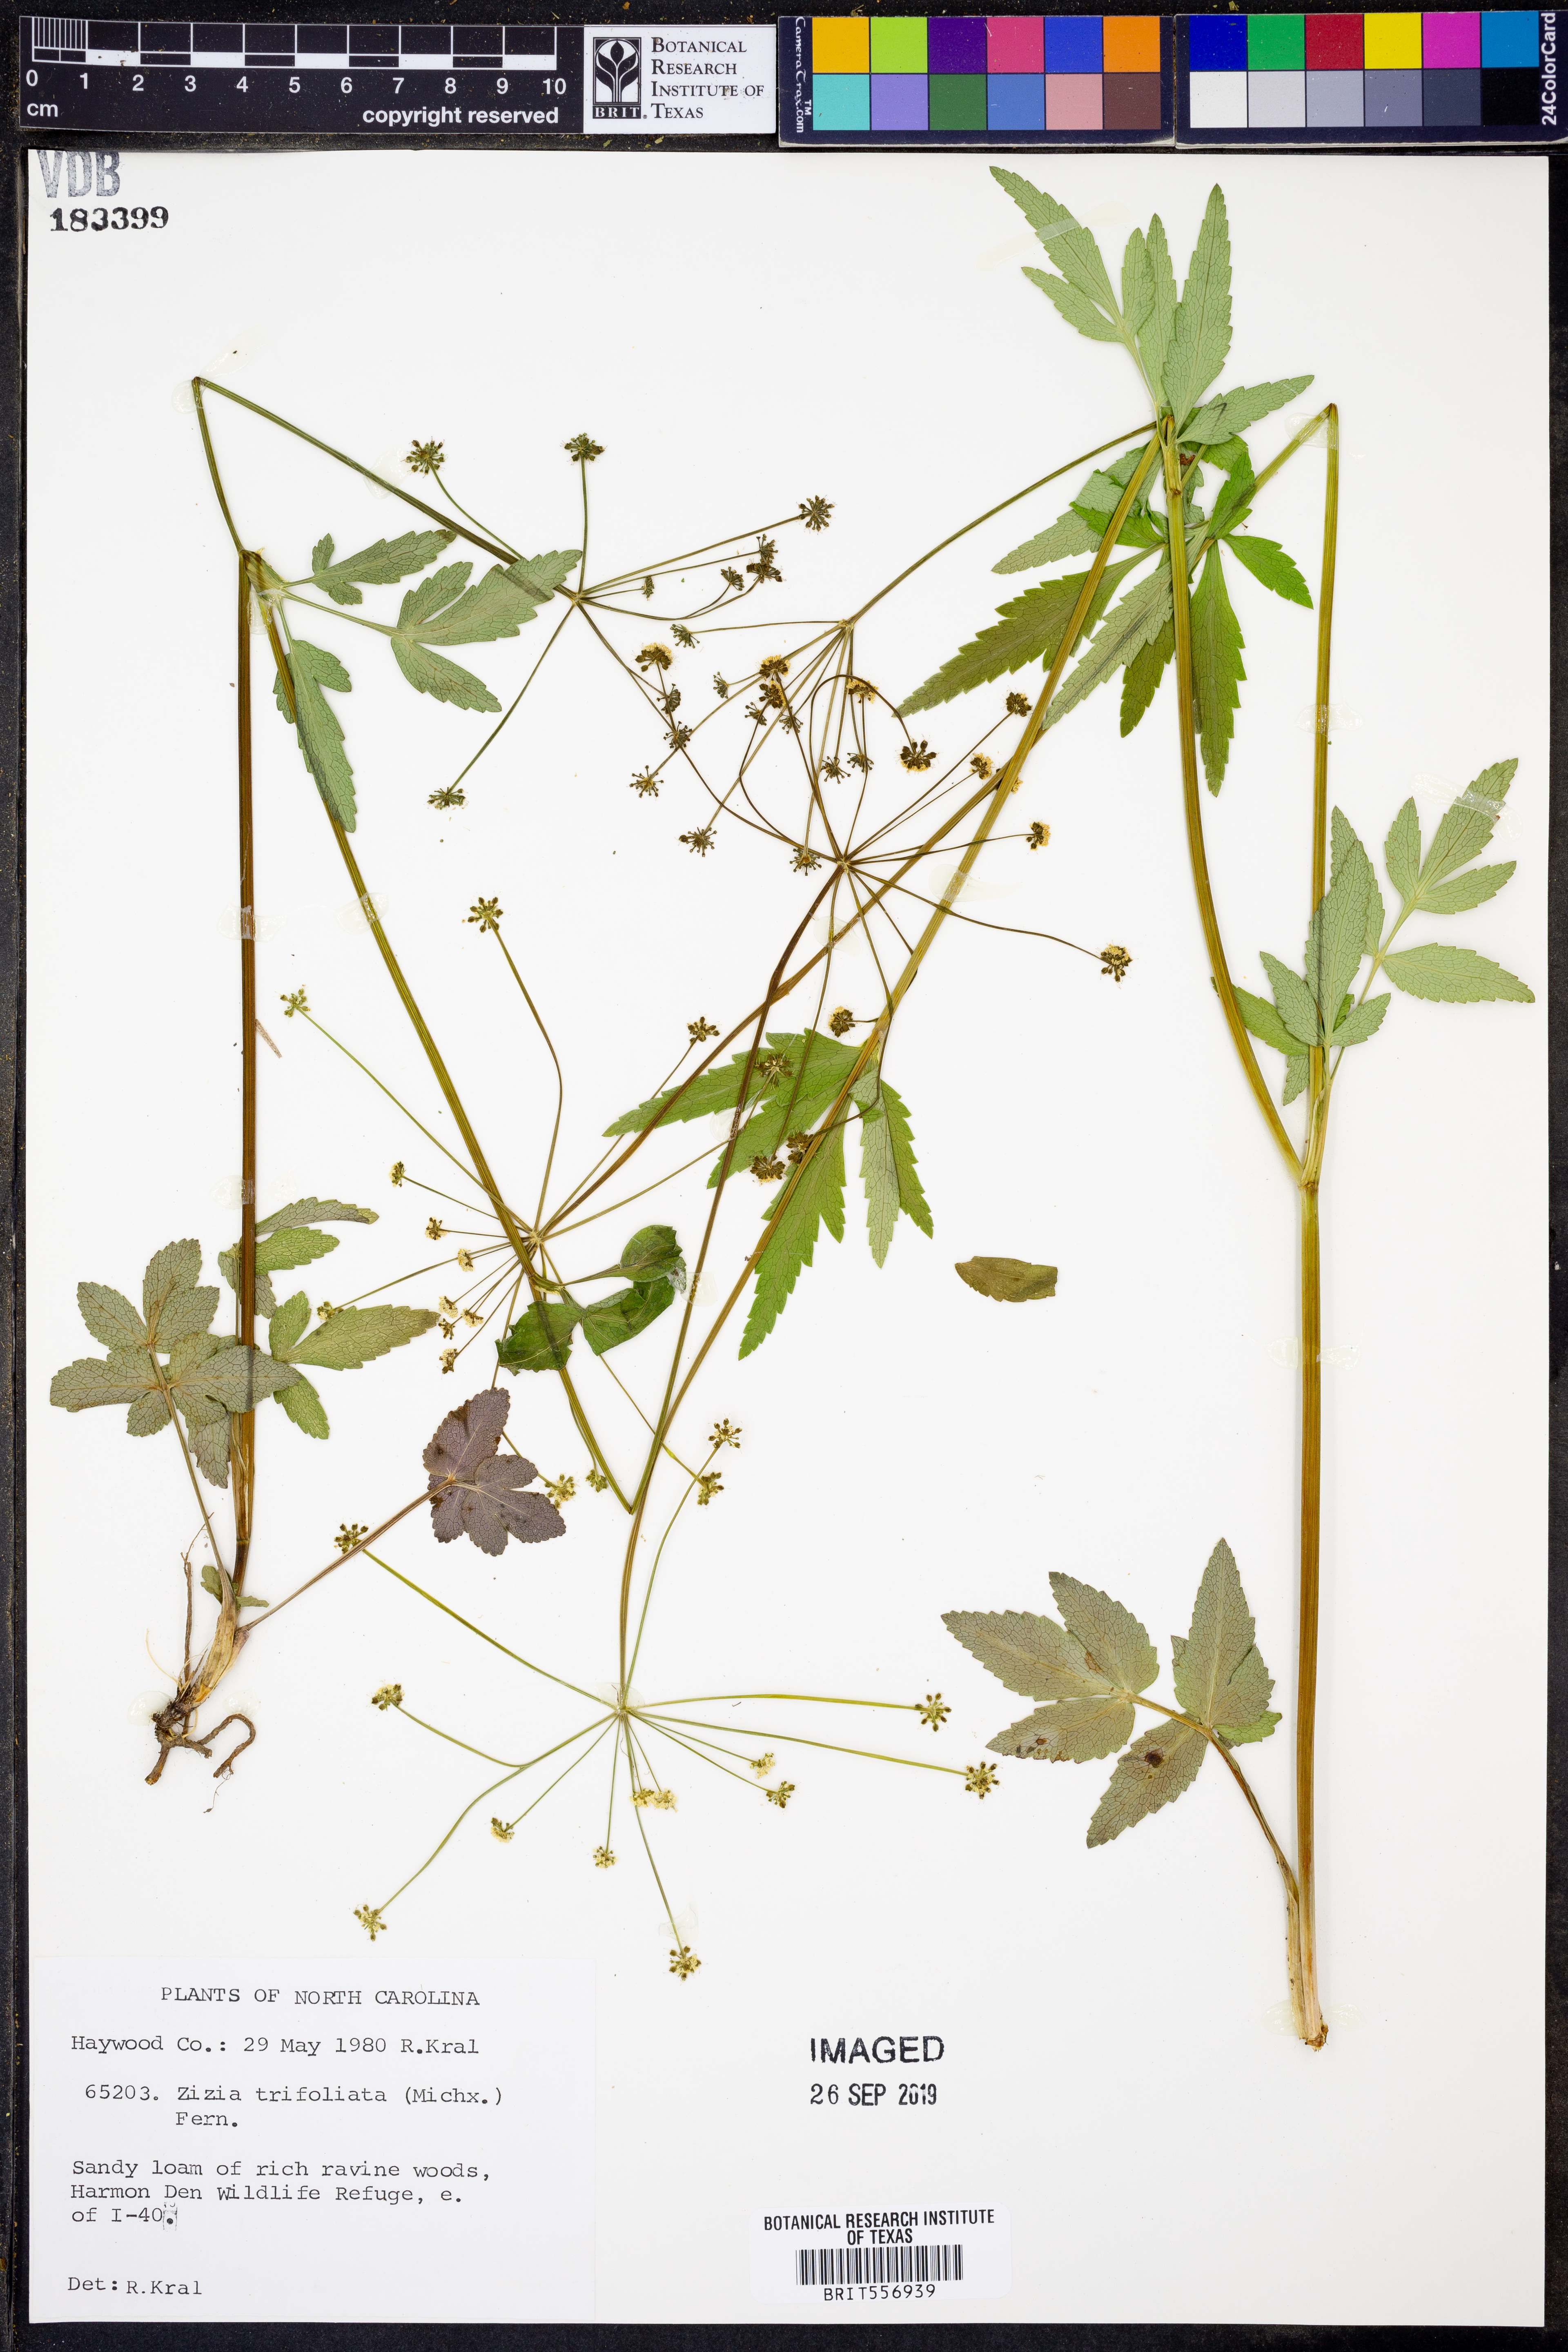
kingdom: Plantae
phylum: Tracheophyta
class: Magnoliopsida
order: Apiales
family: Apiaceae
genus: Zizia
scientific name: Zizia trifoliata
